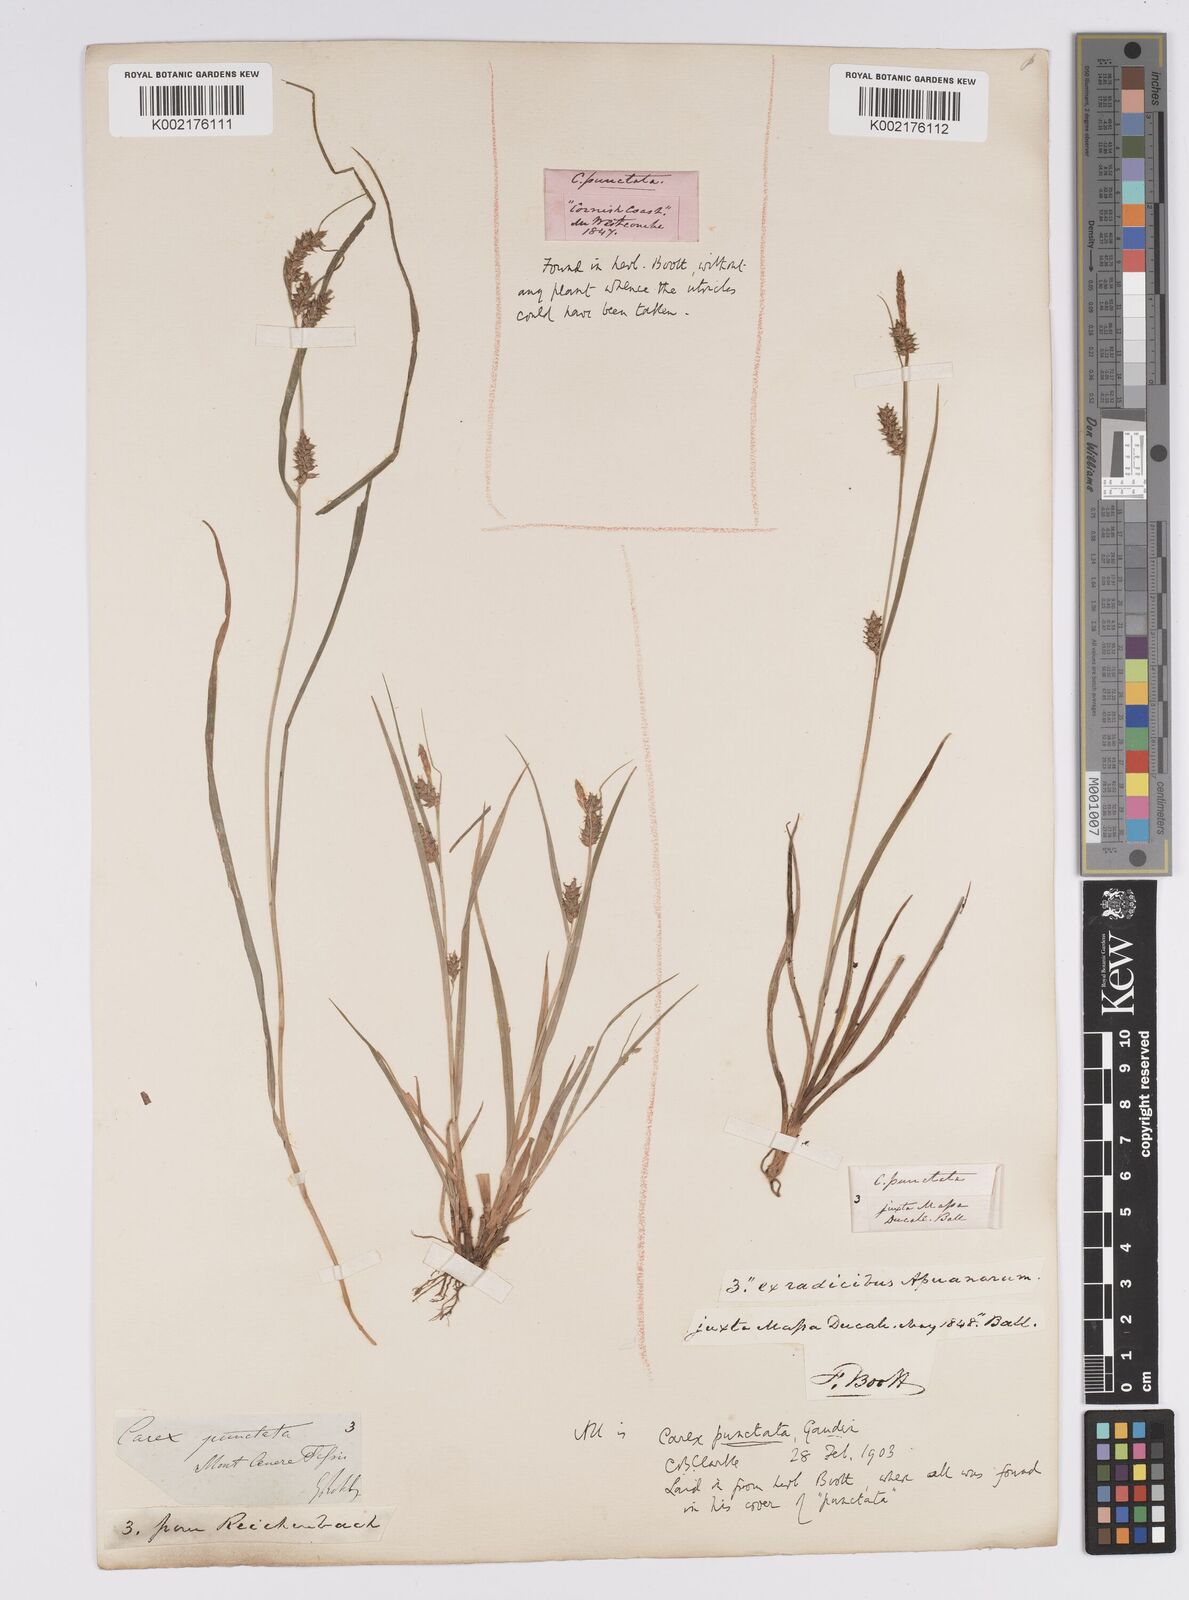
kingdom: Plantae
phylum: Tracheophyta
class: Liliopsida
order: Poales
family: Cyperaceae
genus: Carex
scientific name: Carex punctata
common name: Dotted sedge
